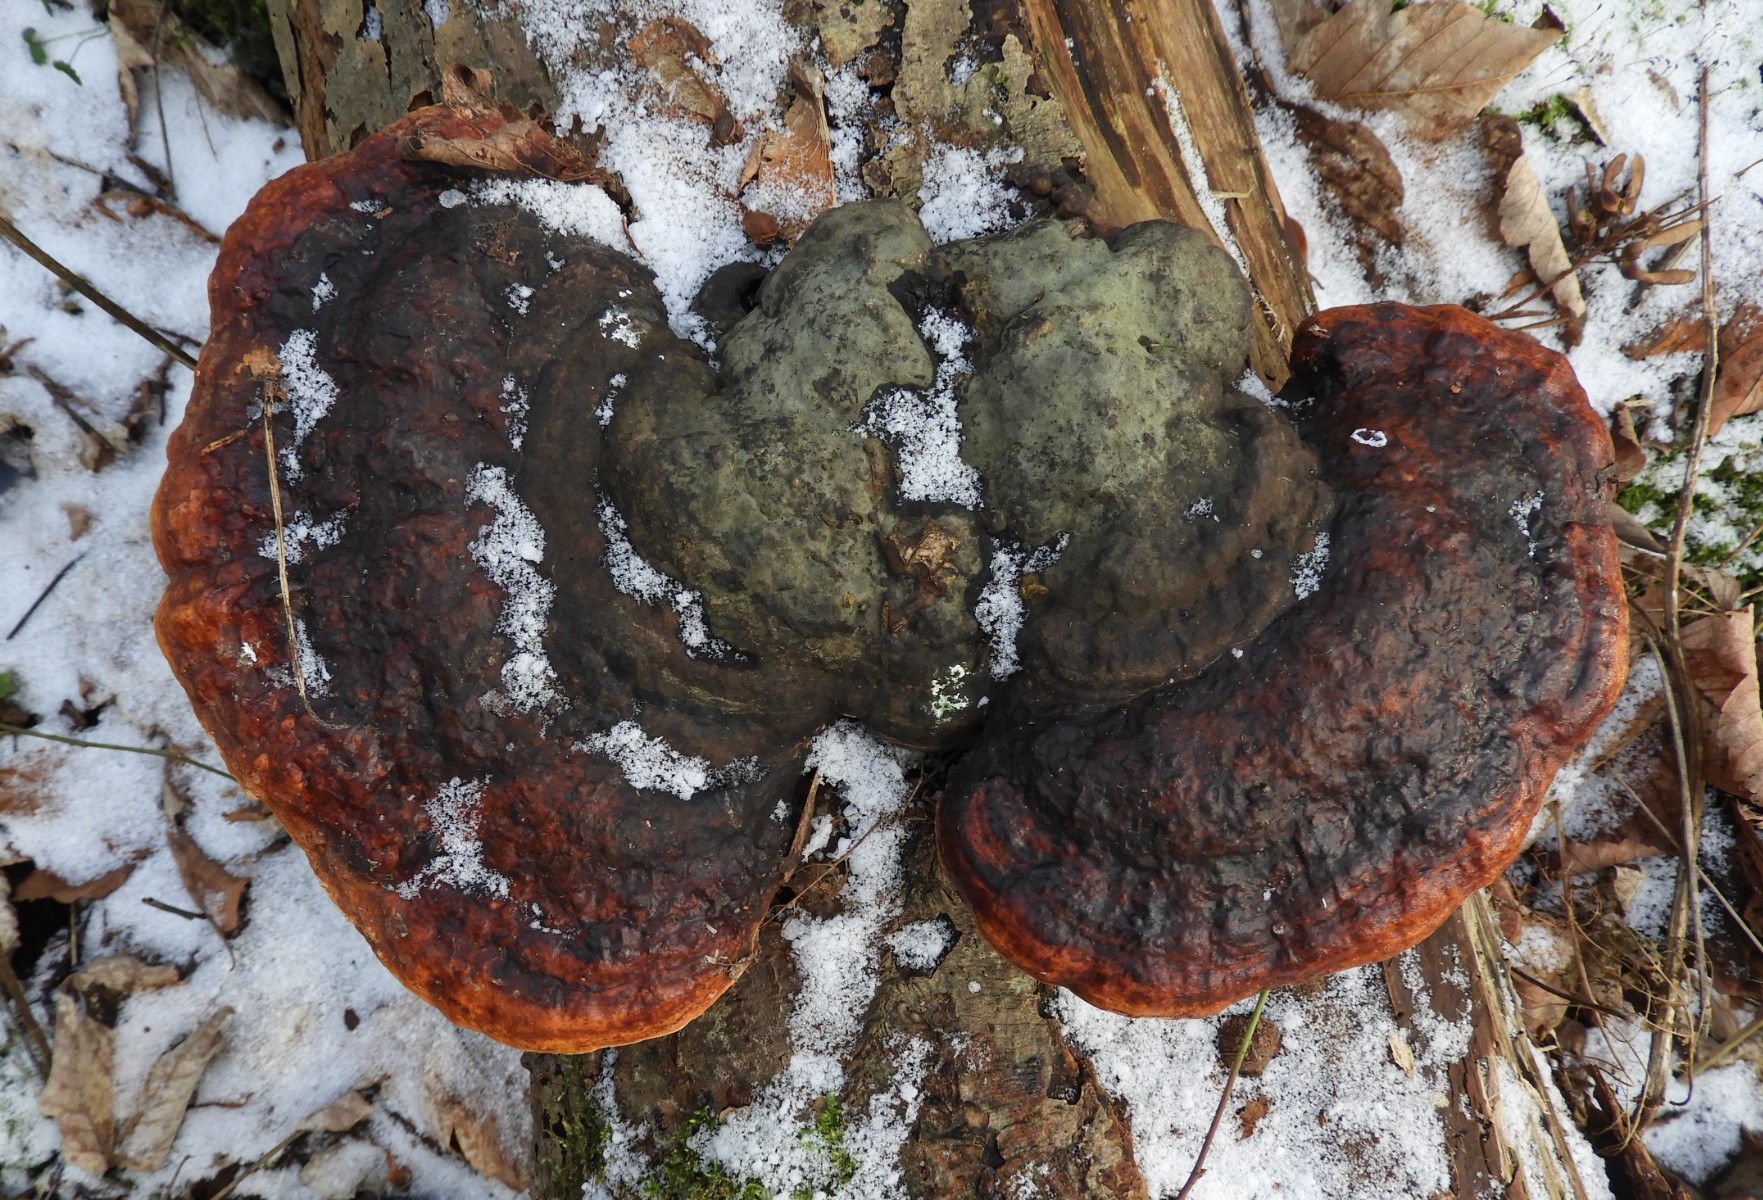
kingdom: Fungi
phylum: Basidiomycota
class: Agaricomycetes
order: Polyporales
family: Fomitopsidaceae
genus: Fomitopsis
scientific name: Fomitopsis pinicola
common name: randbæltet hovporesvamp
